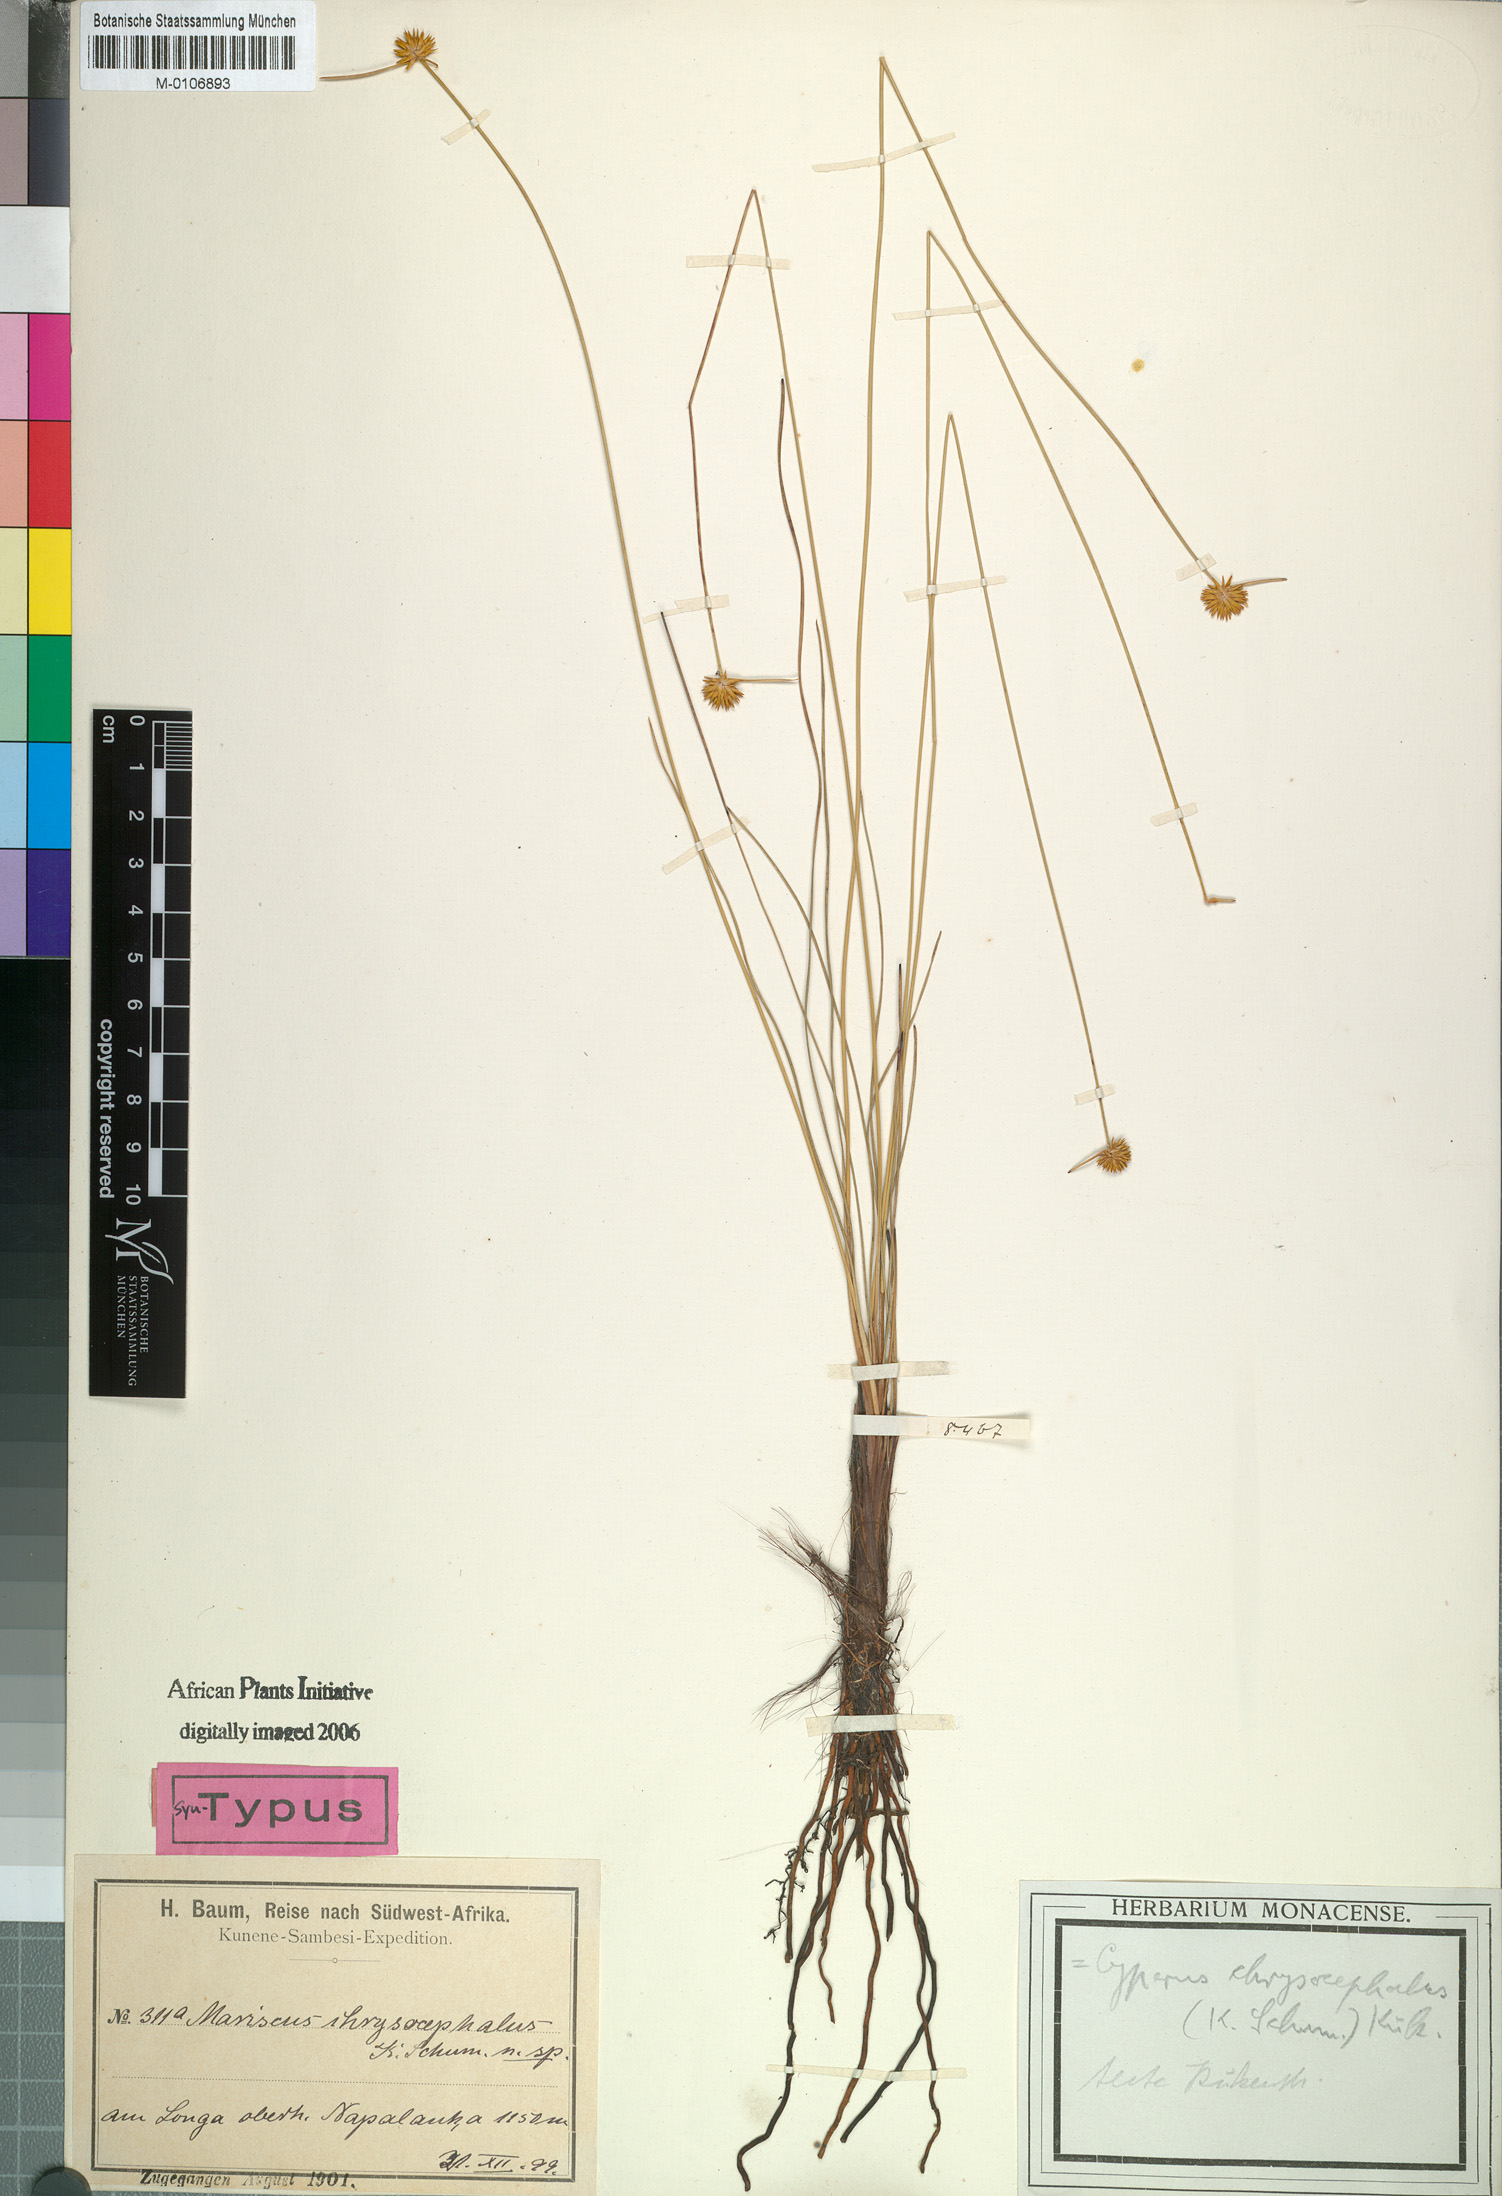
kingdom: Plantae
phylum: Tracheophyta
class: Liliopsida
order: Poales
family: Cyperaceae
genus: Cyperus
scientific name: Cyperus chrysocephalus
